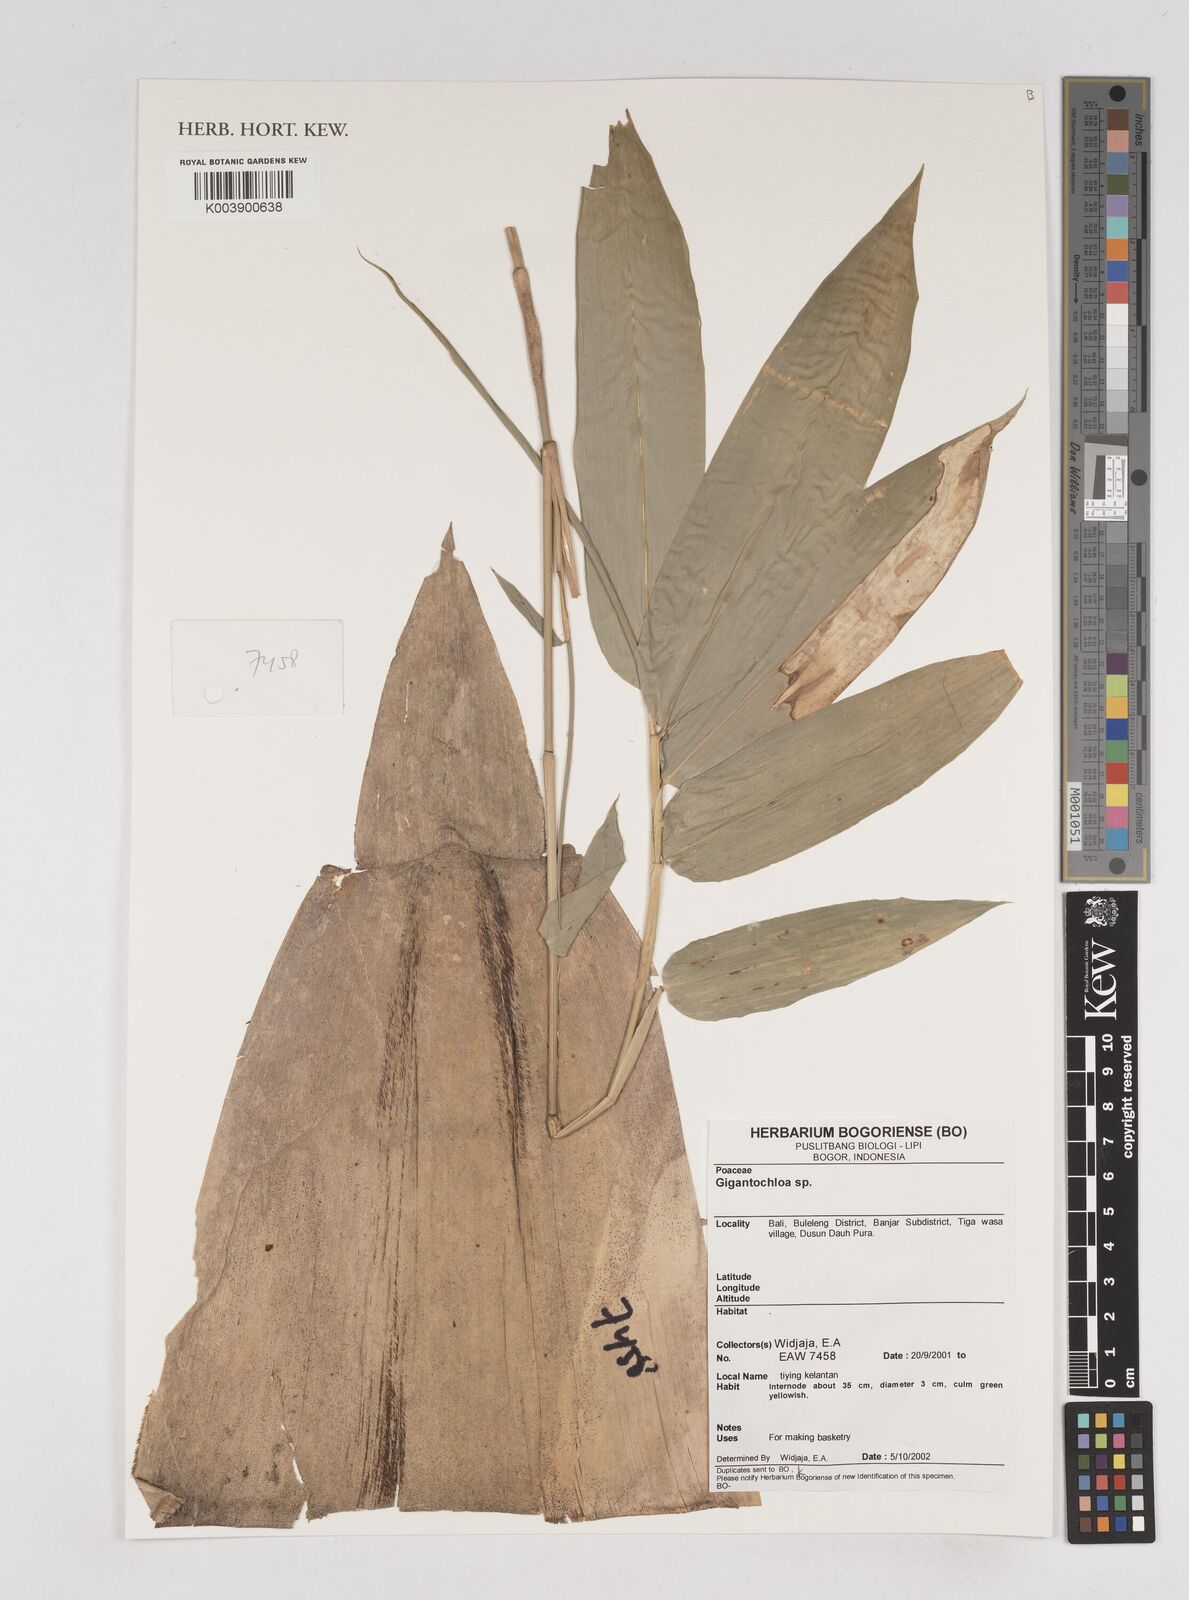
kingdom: Plantae
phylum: Tracheophyta
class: Liliopsida
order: Poales
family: Poaceae
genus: Gigantochloa
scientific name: Gigantochloa
